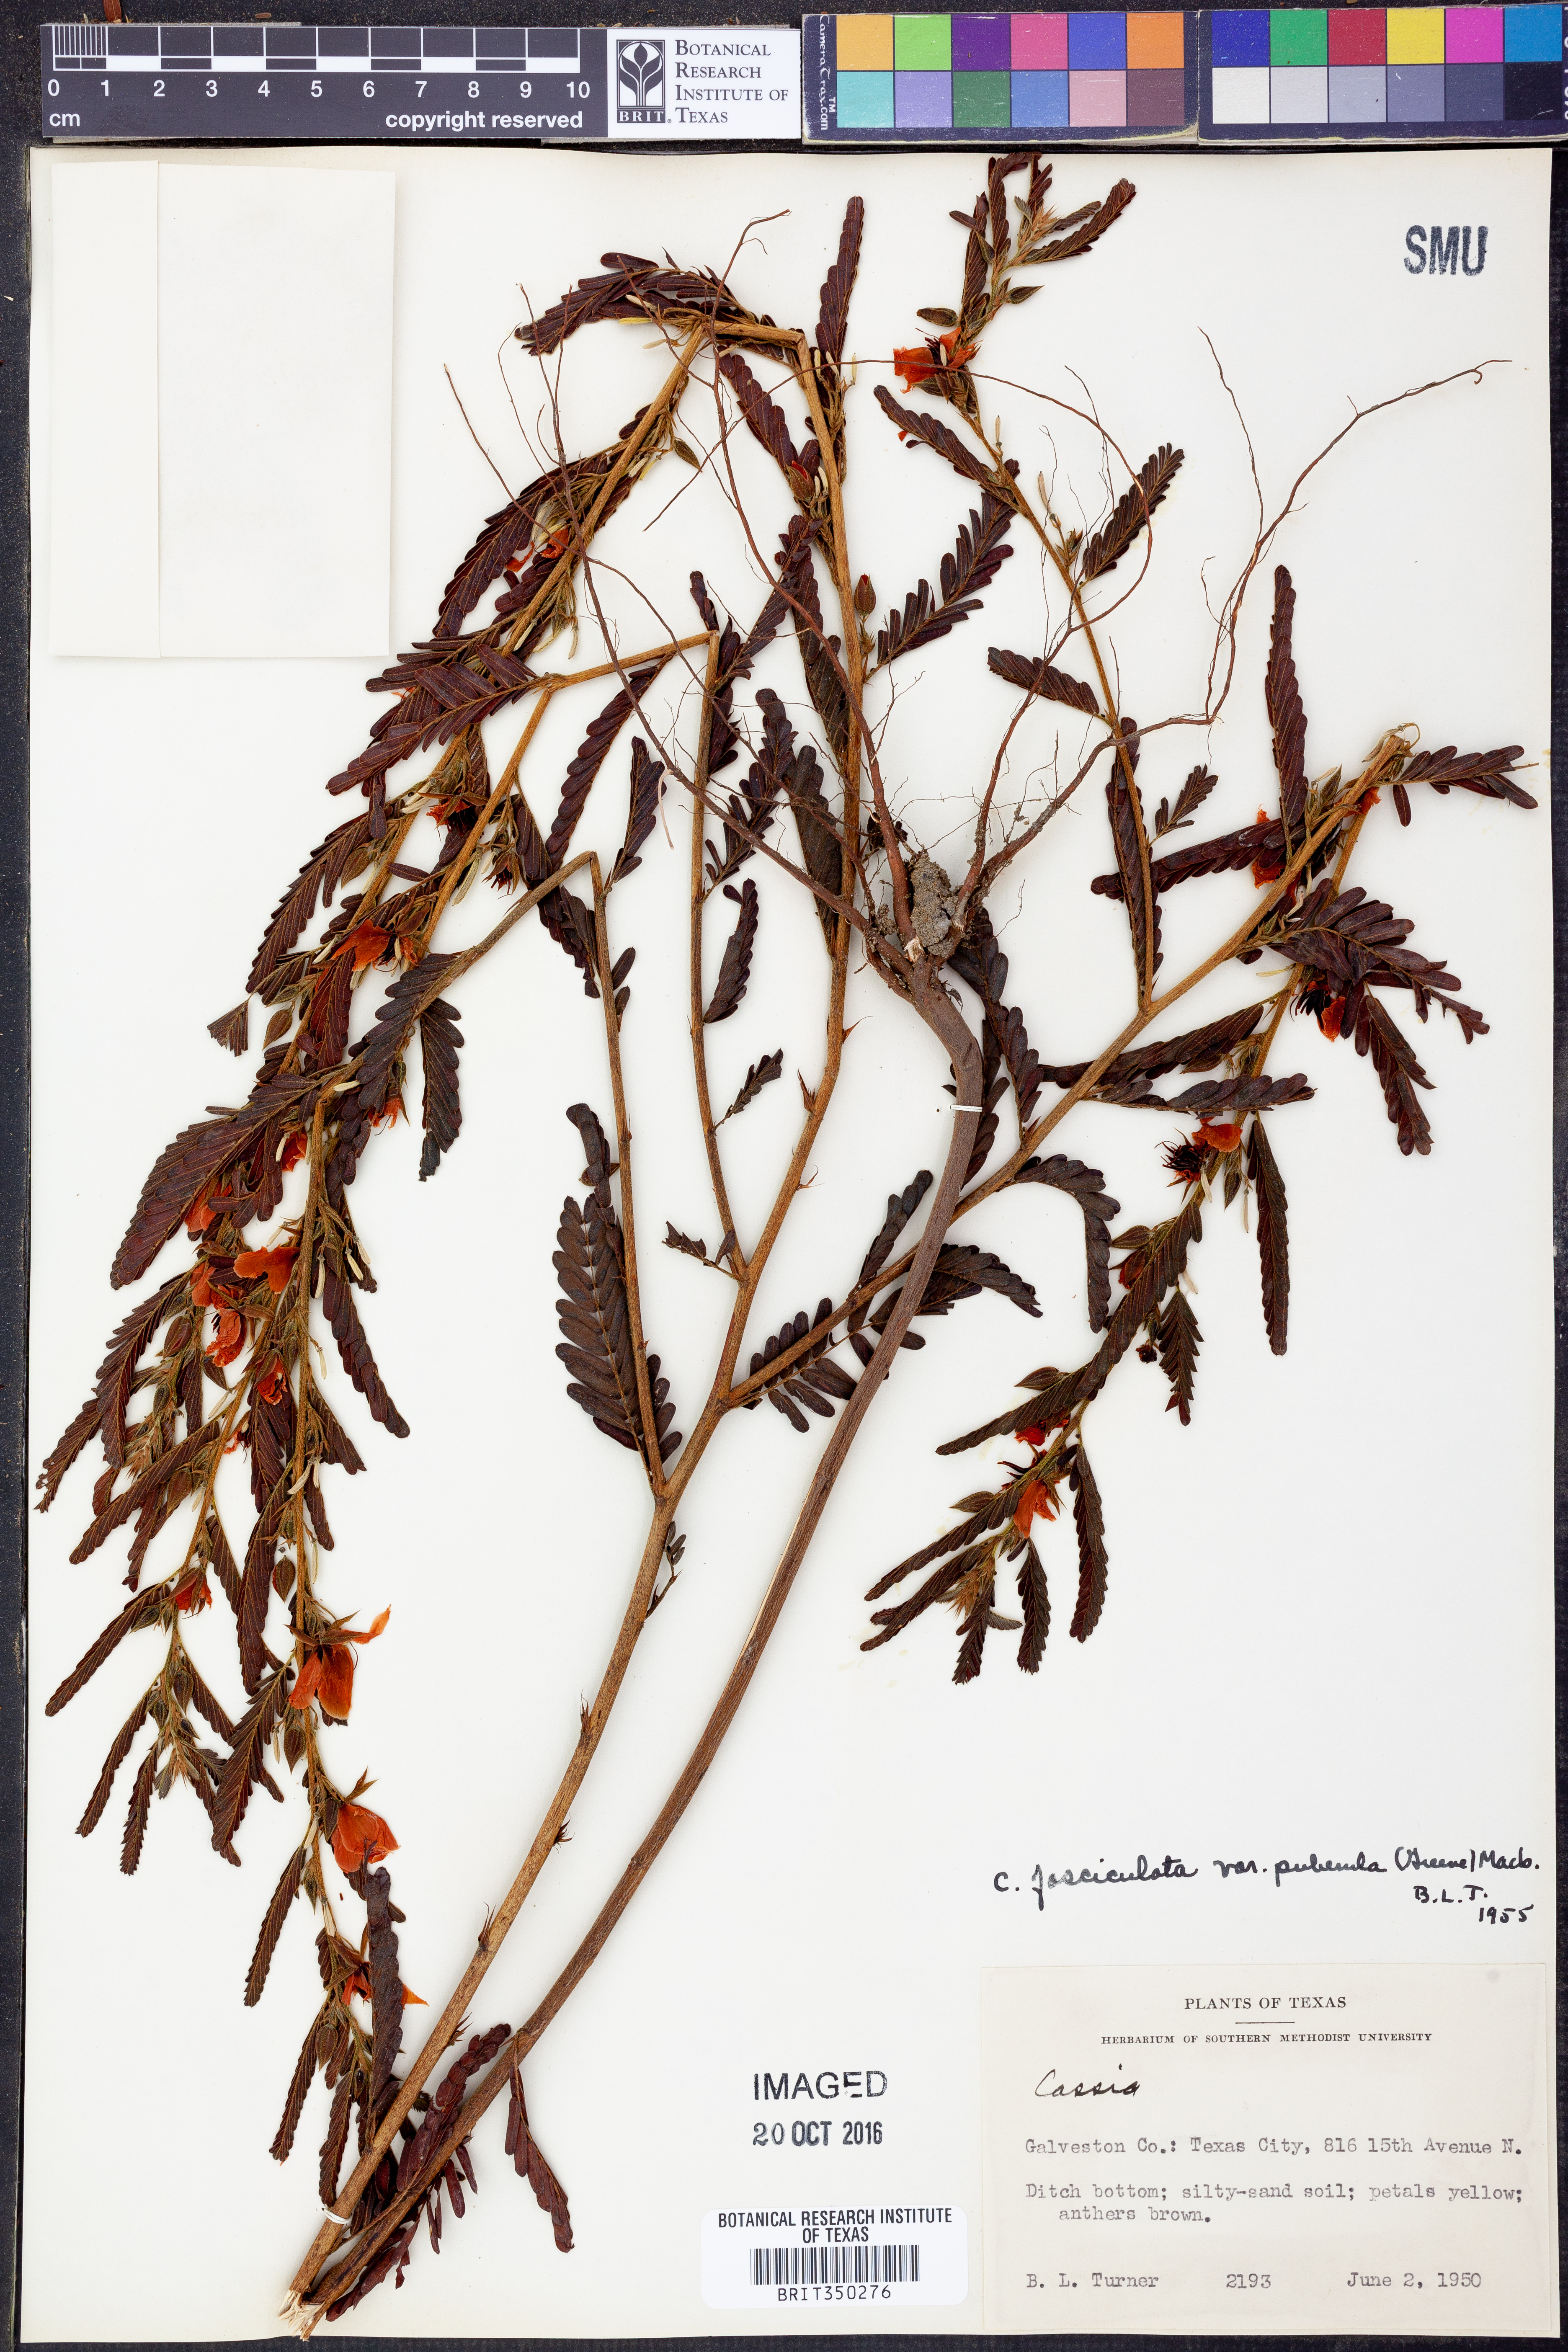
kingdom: Plantae
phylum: Tracheophyta
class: Magnoliopsida
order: Fabales
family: Fabaceae
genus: Chamaecrista
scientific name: Chamaecrista fasciculata
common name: Golden cassia
